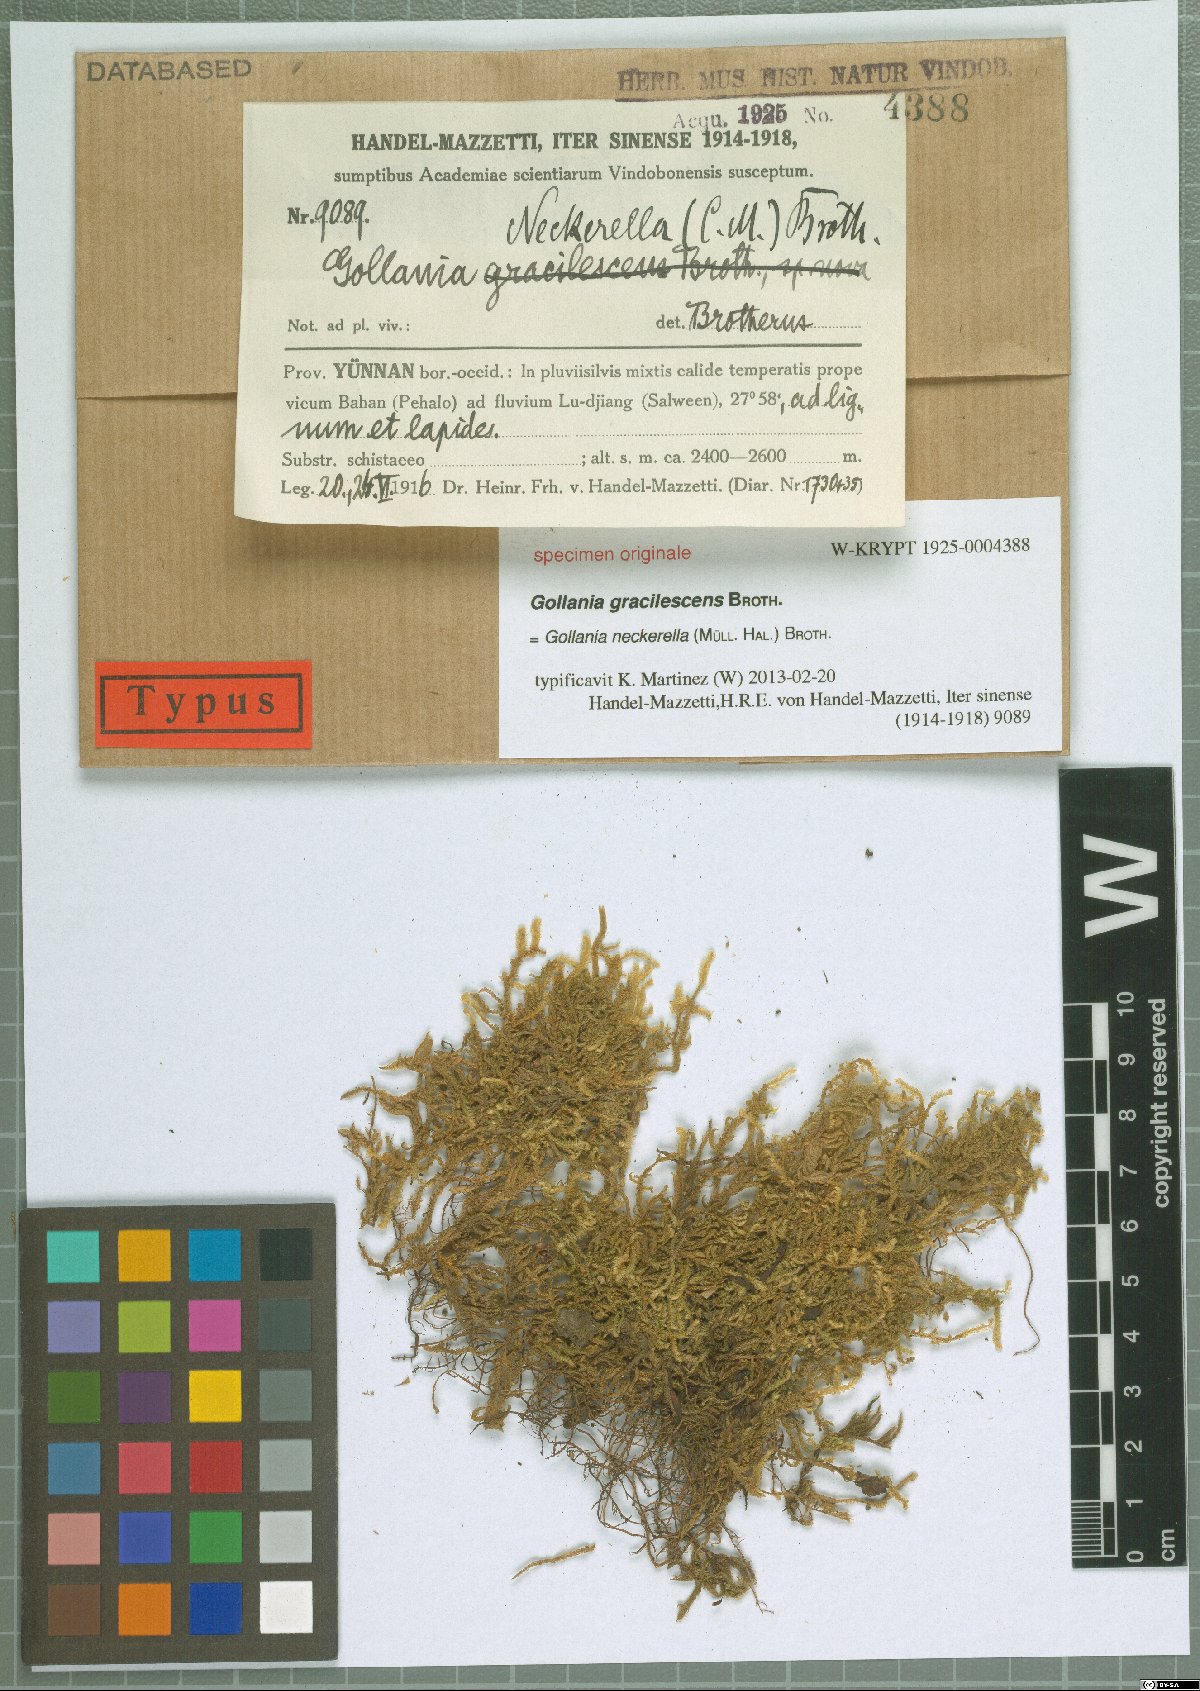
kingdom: Plantae
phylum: Bryophyta
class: Bryopsida
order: Hypnales
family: Hypnaceae
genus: Gollania
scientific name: Gollania
